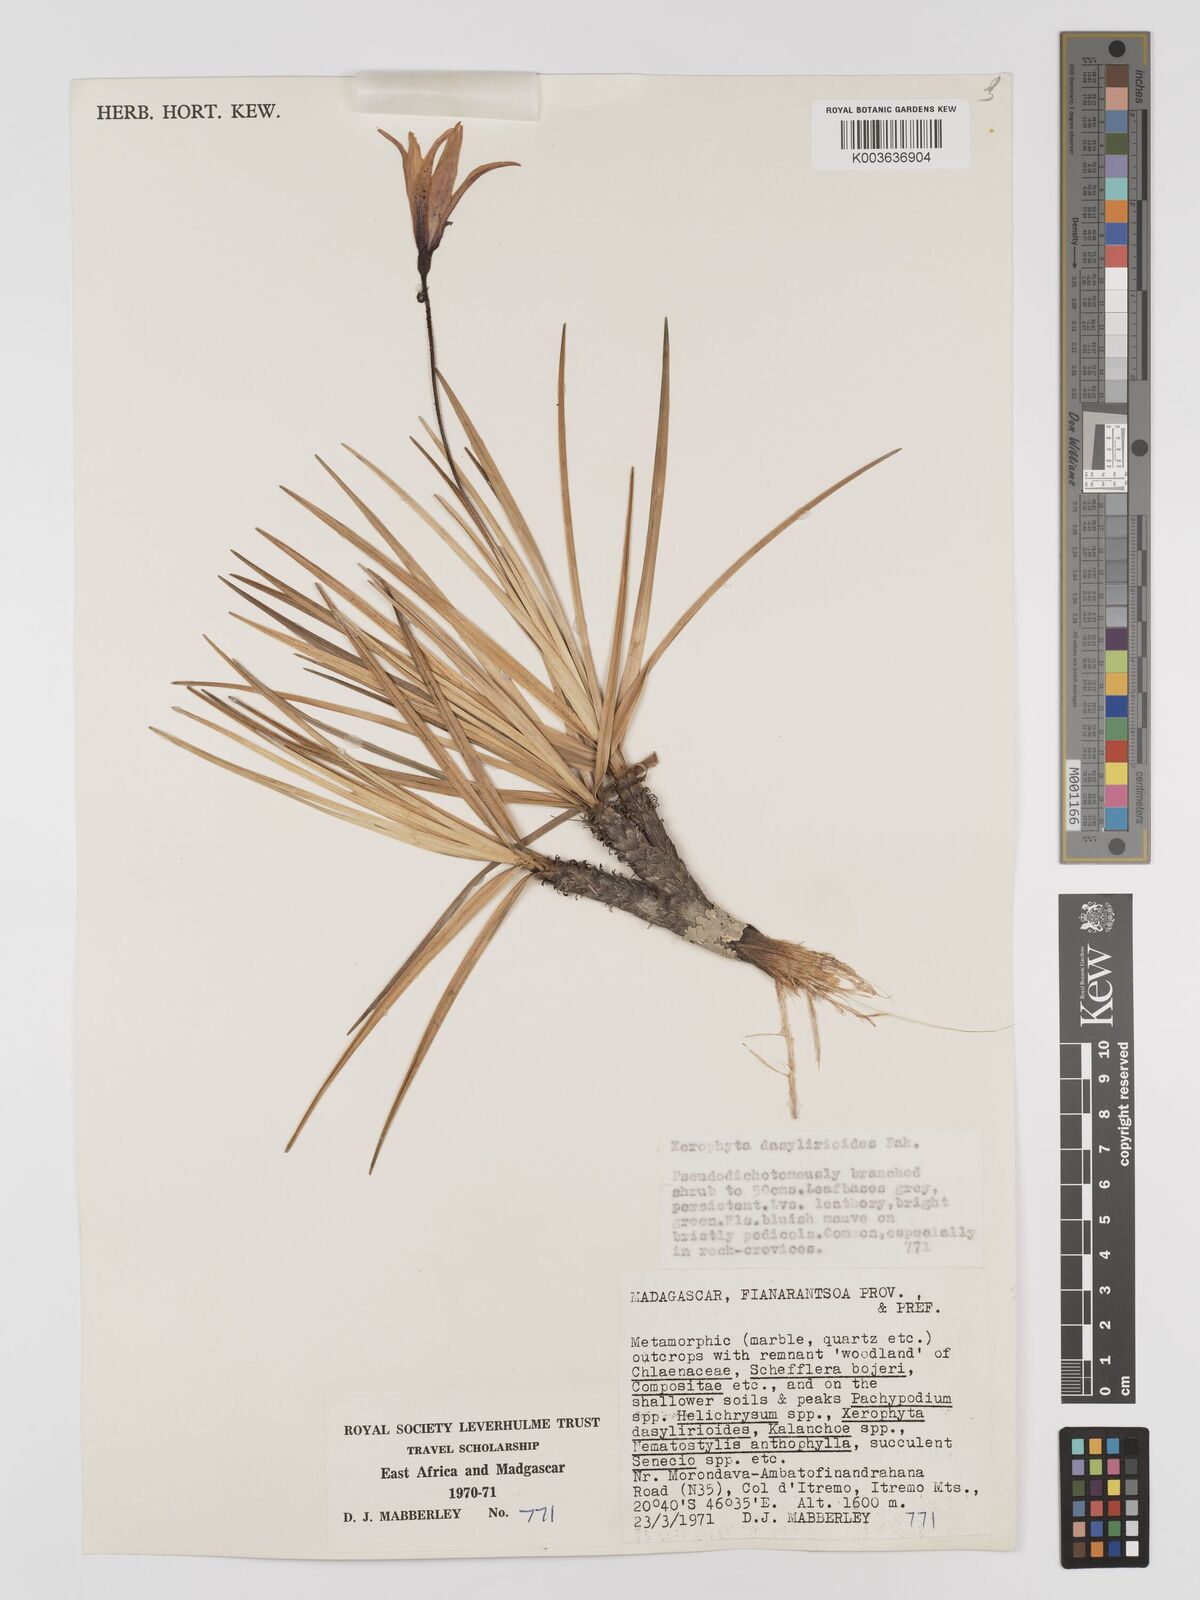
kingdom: Plantae
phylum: Tracheophyta
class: Liliopsida
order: Pandanales
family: Velloziaceae
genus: Xerophyta
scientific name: Xerophyta dasylirioides
